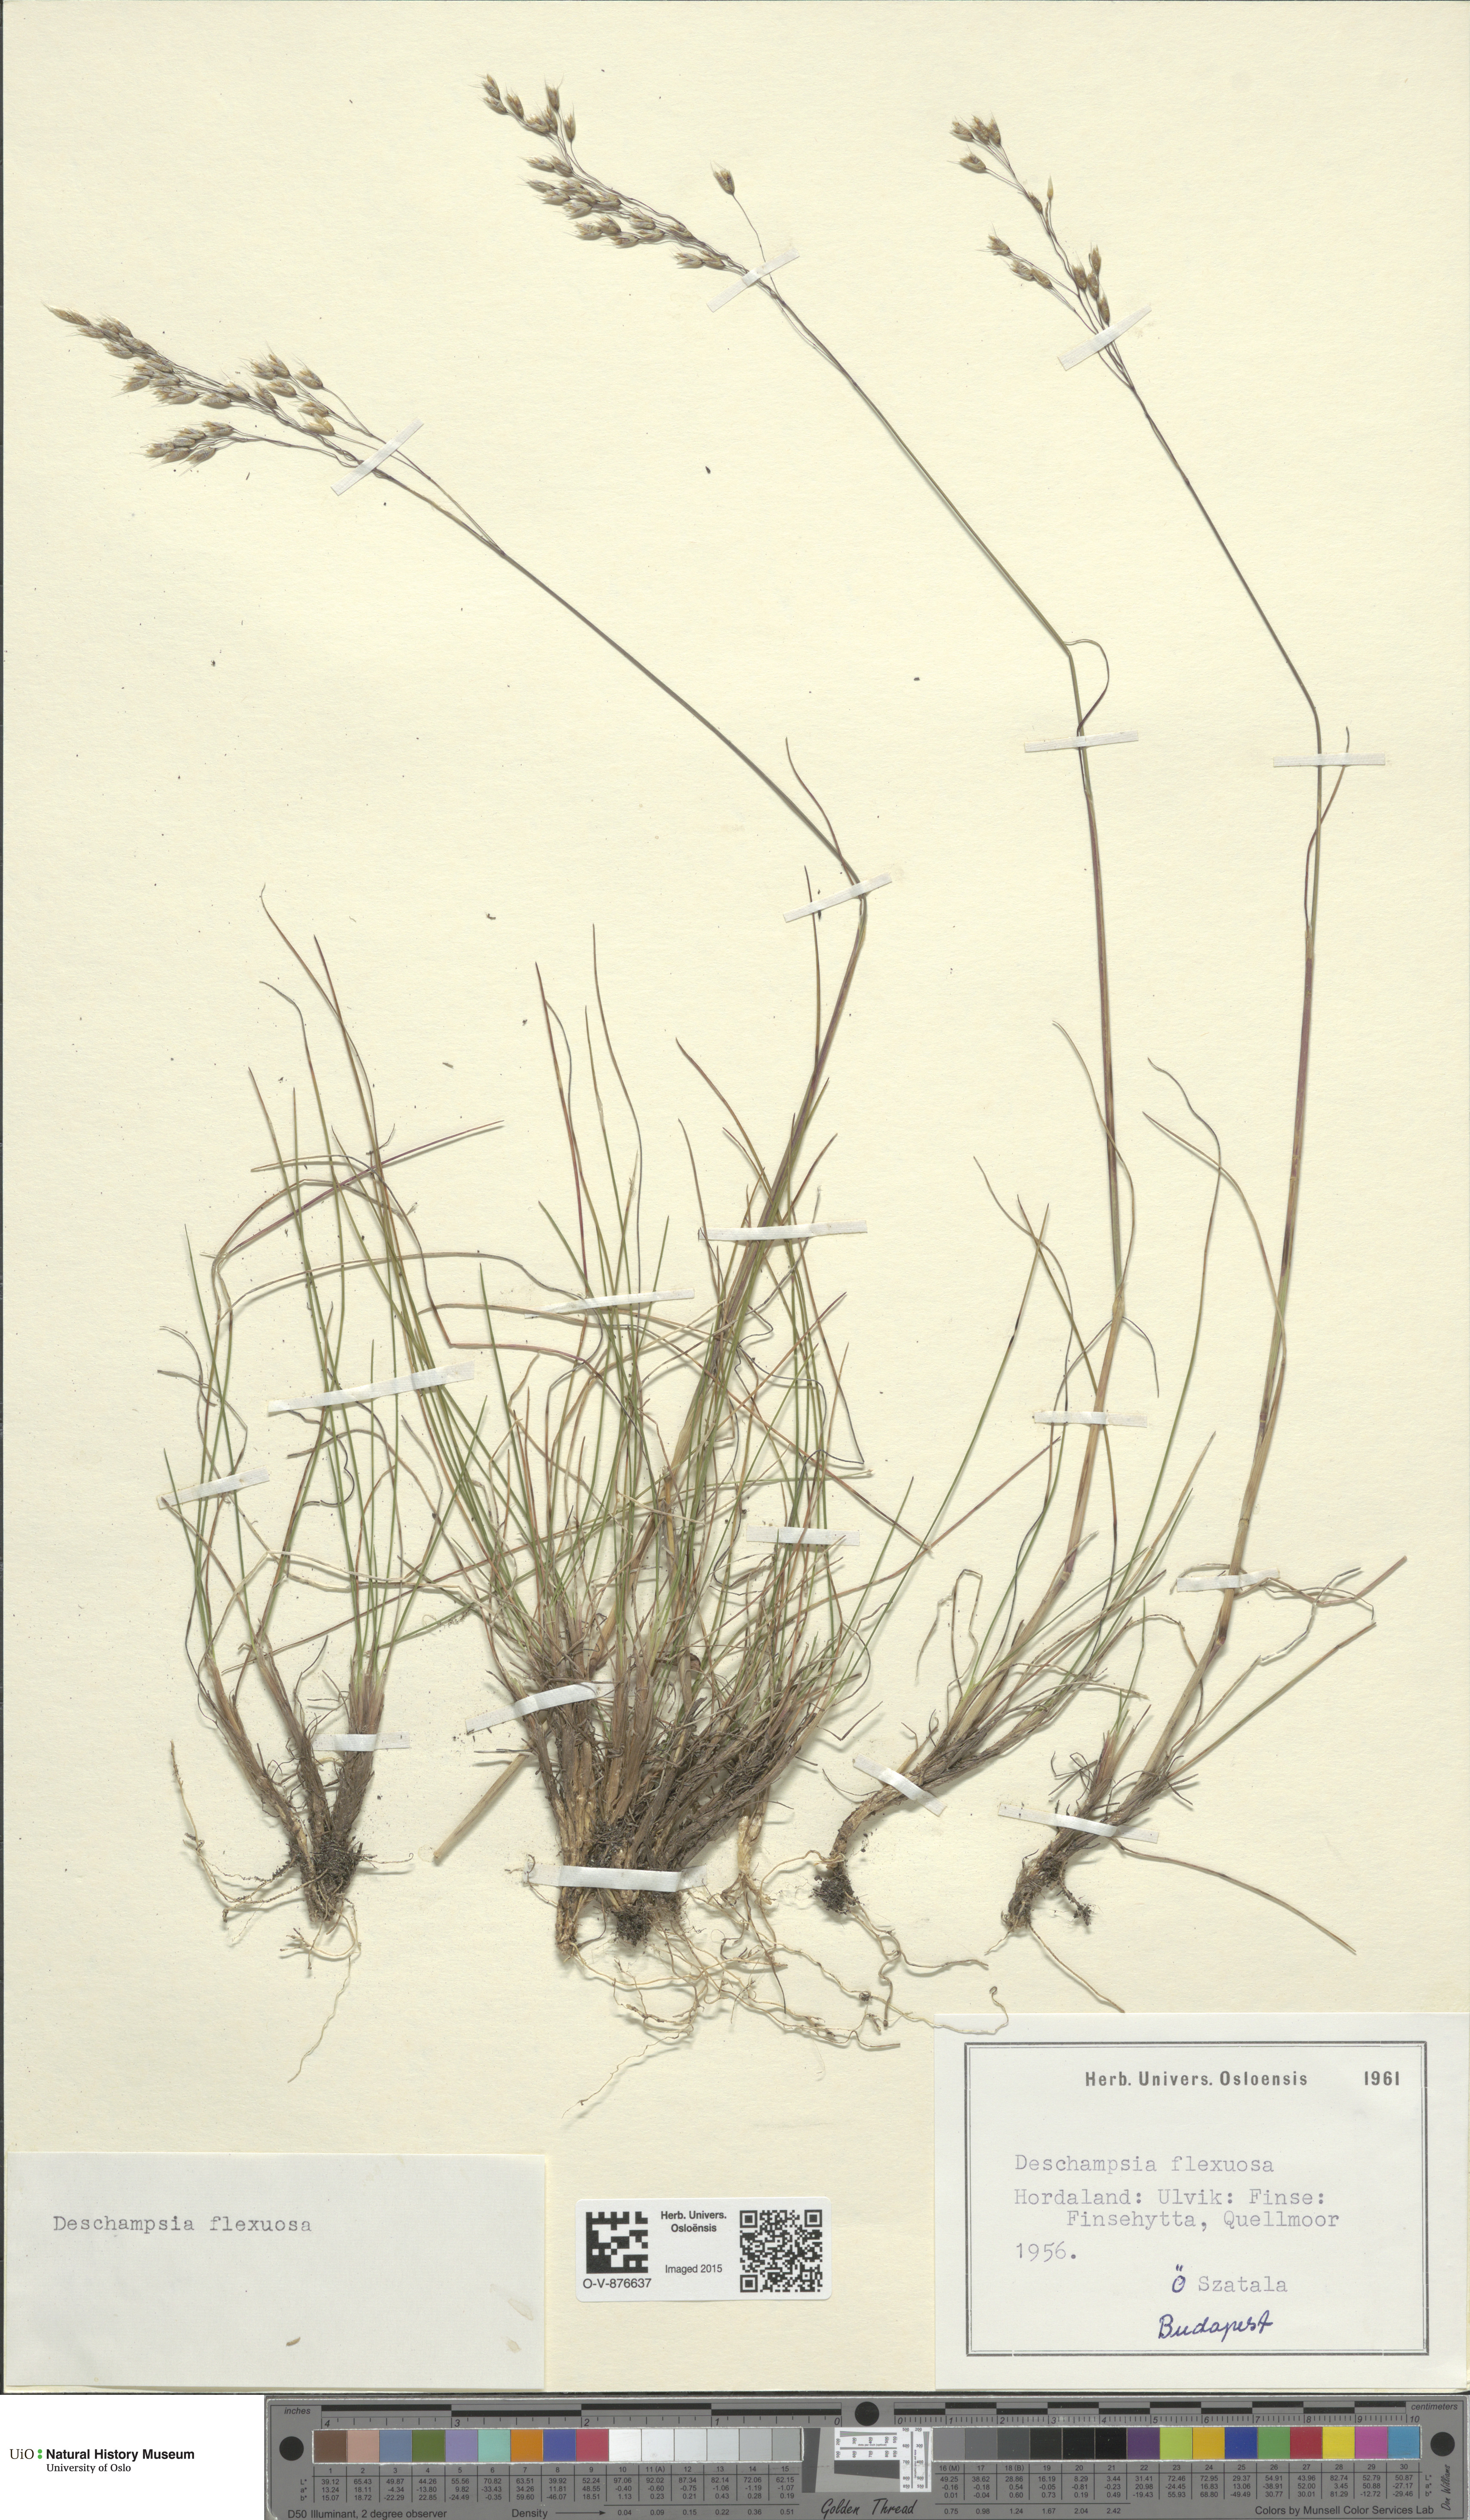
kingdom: Plantae
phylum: Tracheophyta
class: Liliopsida
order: Poales
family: Poaceae
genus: Avenella
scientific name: Avenella flexuosa
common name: Wavy hairgrass
